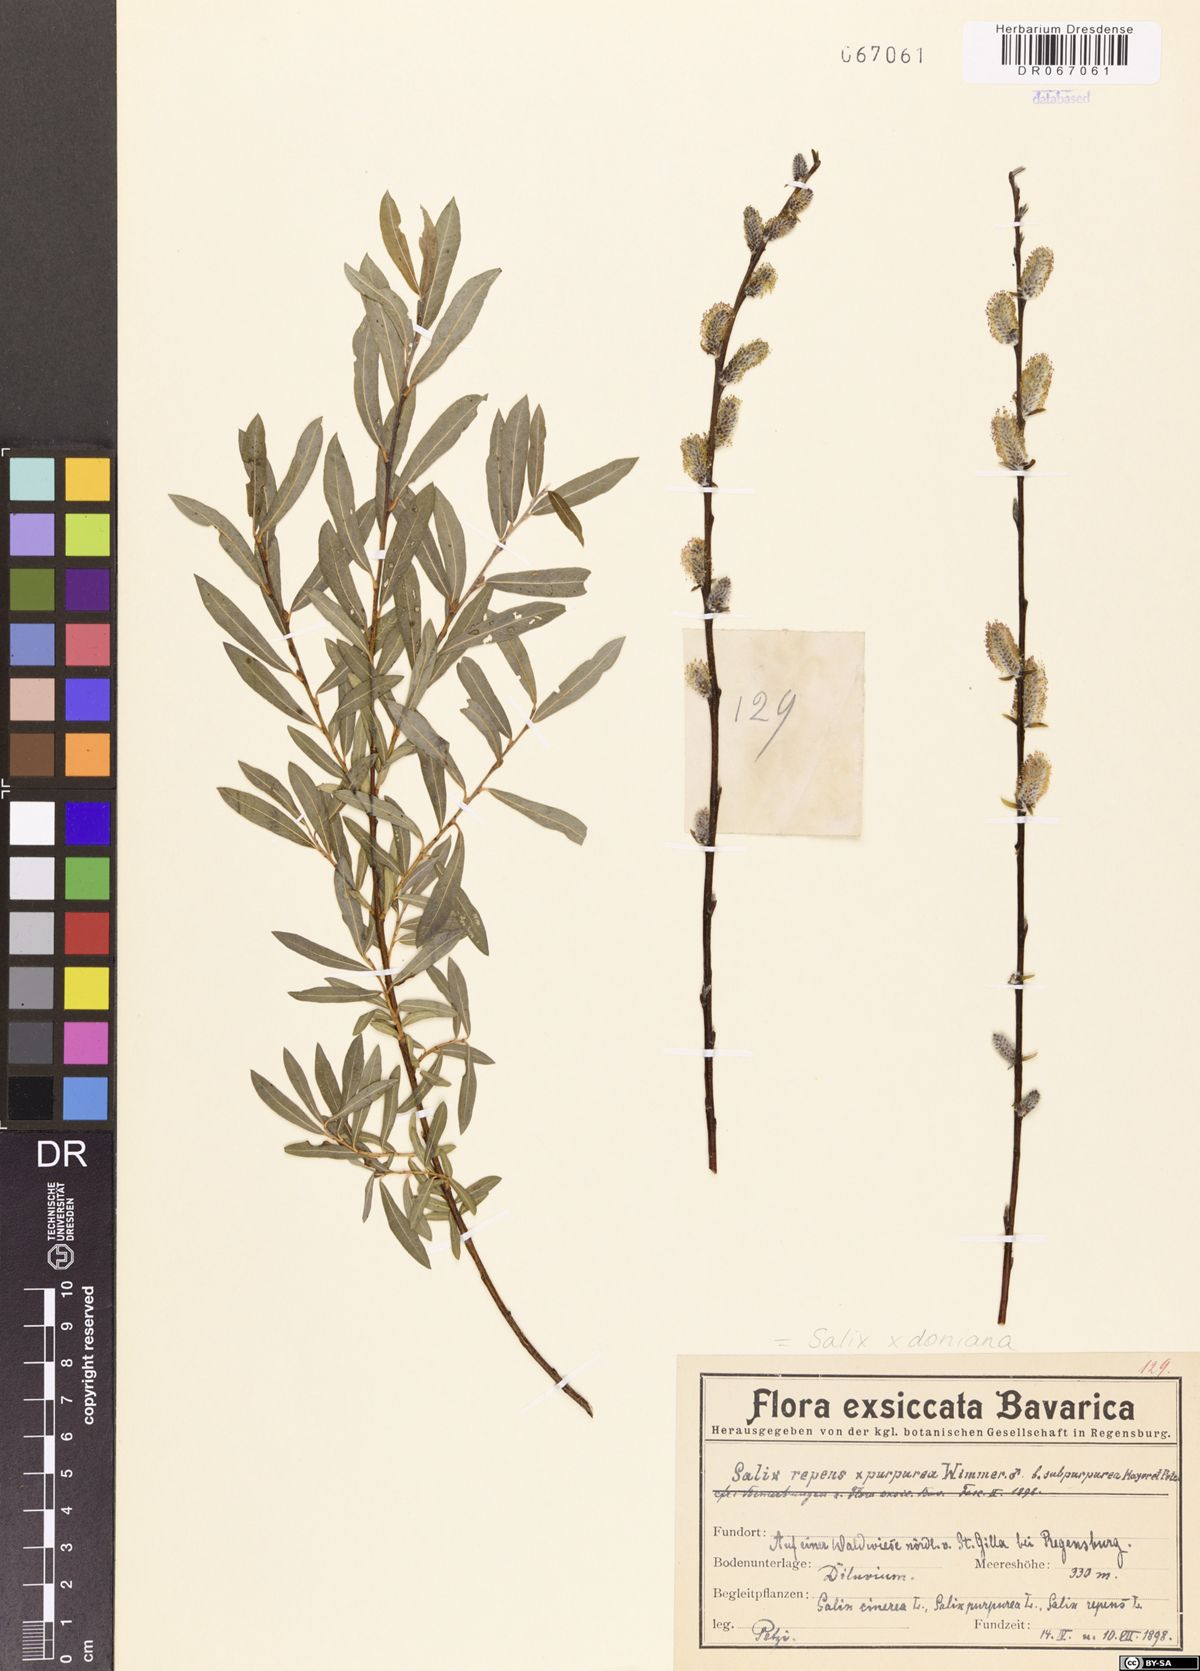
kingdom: Plantae
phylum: Tracheophyta
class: Magnoliopsida
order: Malpighiales
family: Salicaceae
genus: Salix
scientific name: Salix doniana
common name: Donian willow
